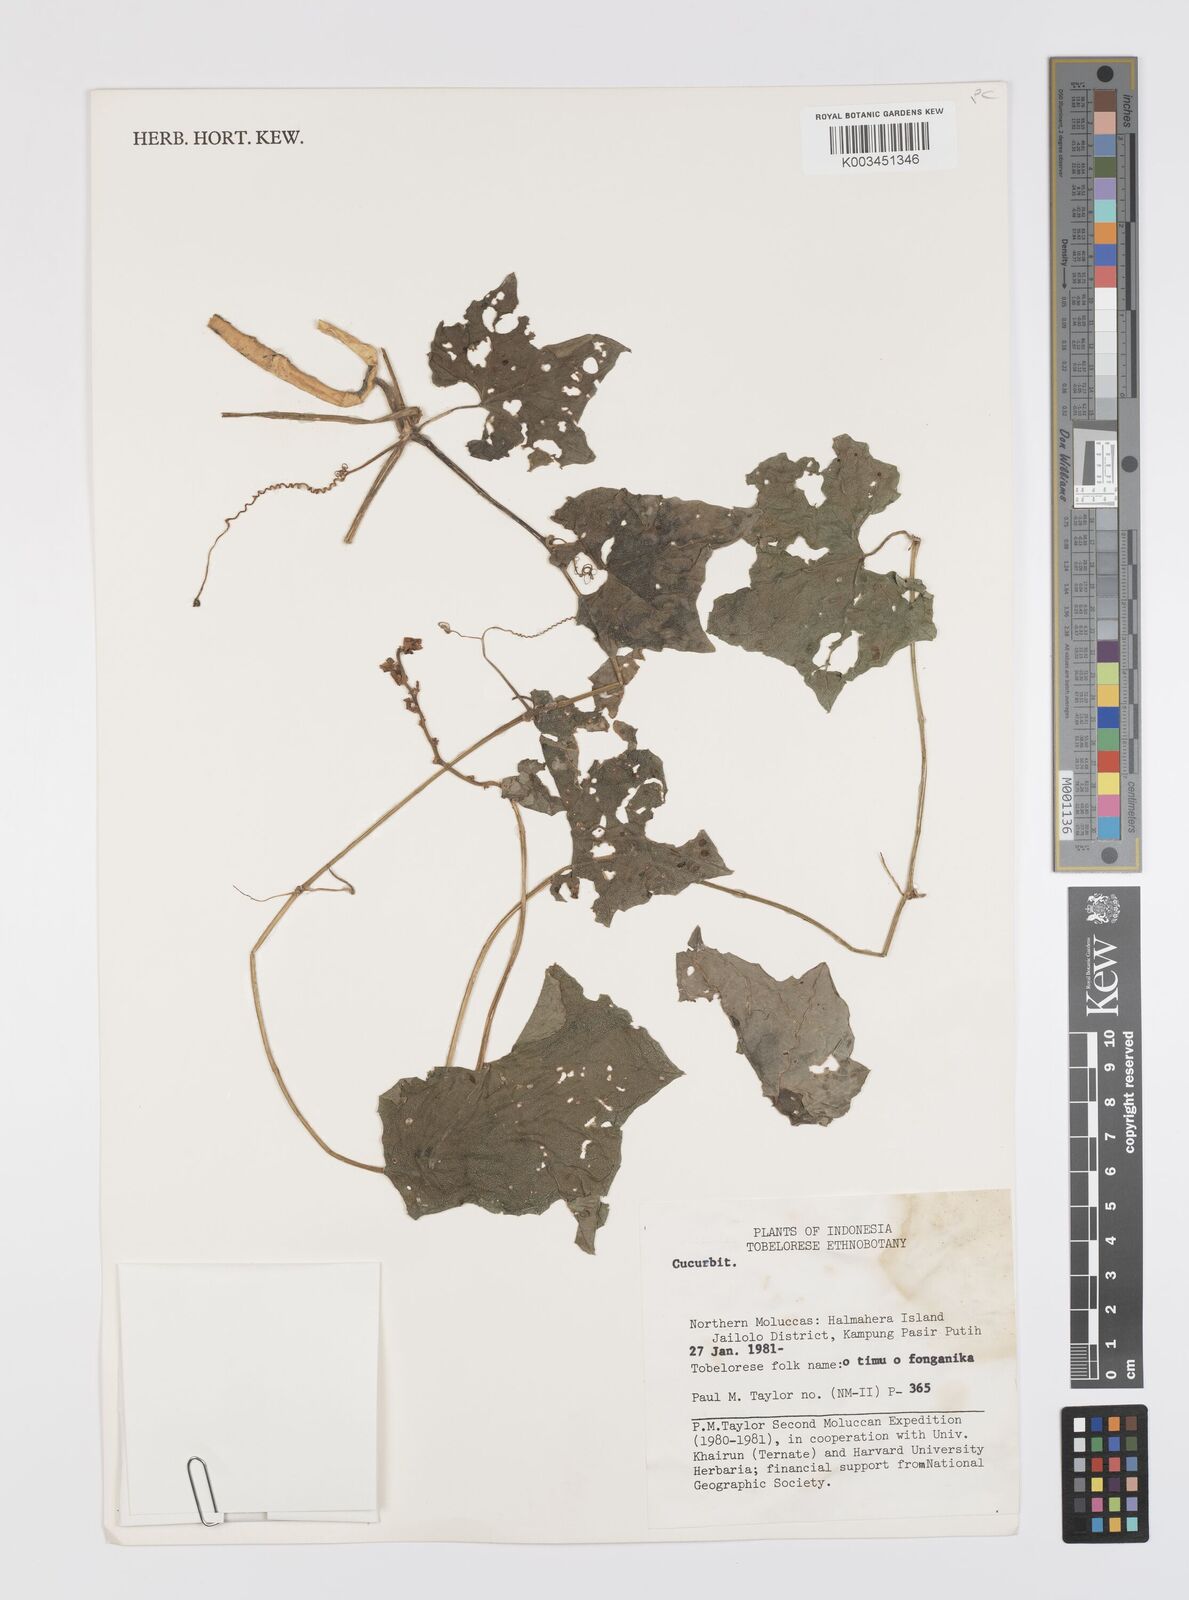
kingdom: Plantae
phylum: Tracheophyta
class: Magnoliopsida
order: Cucurbitales
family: Cucurbitaceae
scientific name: Cucurbitaceae
